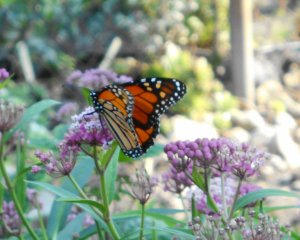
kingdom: Animalia
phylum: Arthropoda
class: Insecta
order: Lepidoptera
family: Nymphalidae
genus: Danaus
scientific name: Danaus plexippus
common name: Monarch
